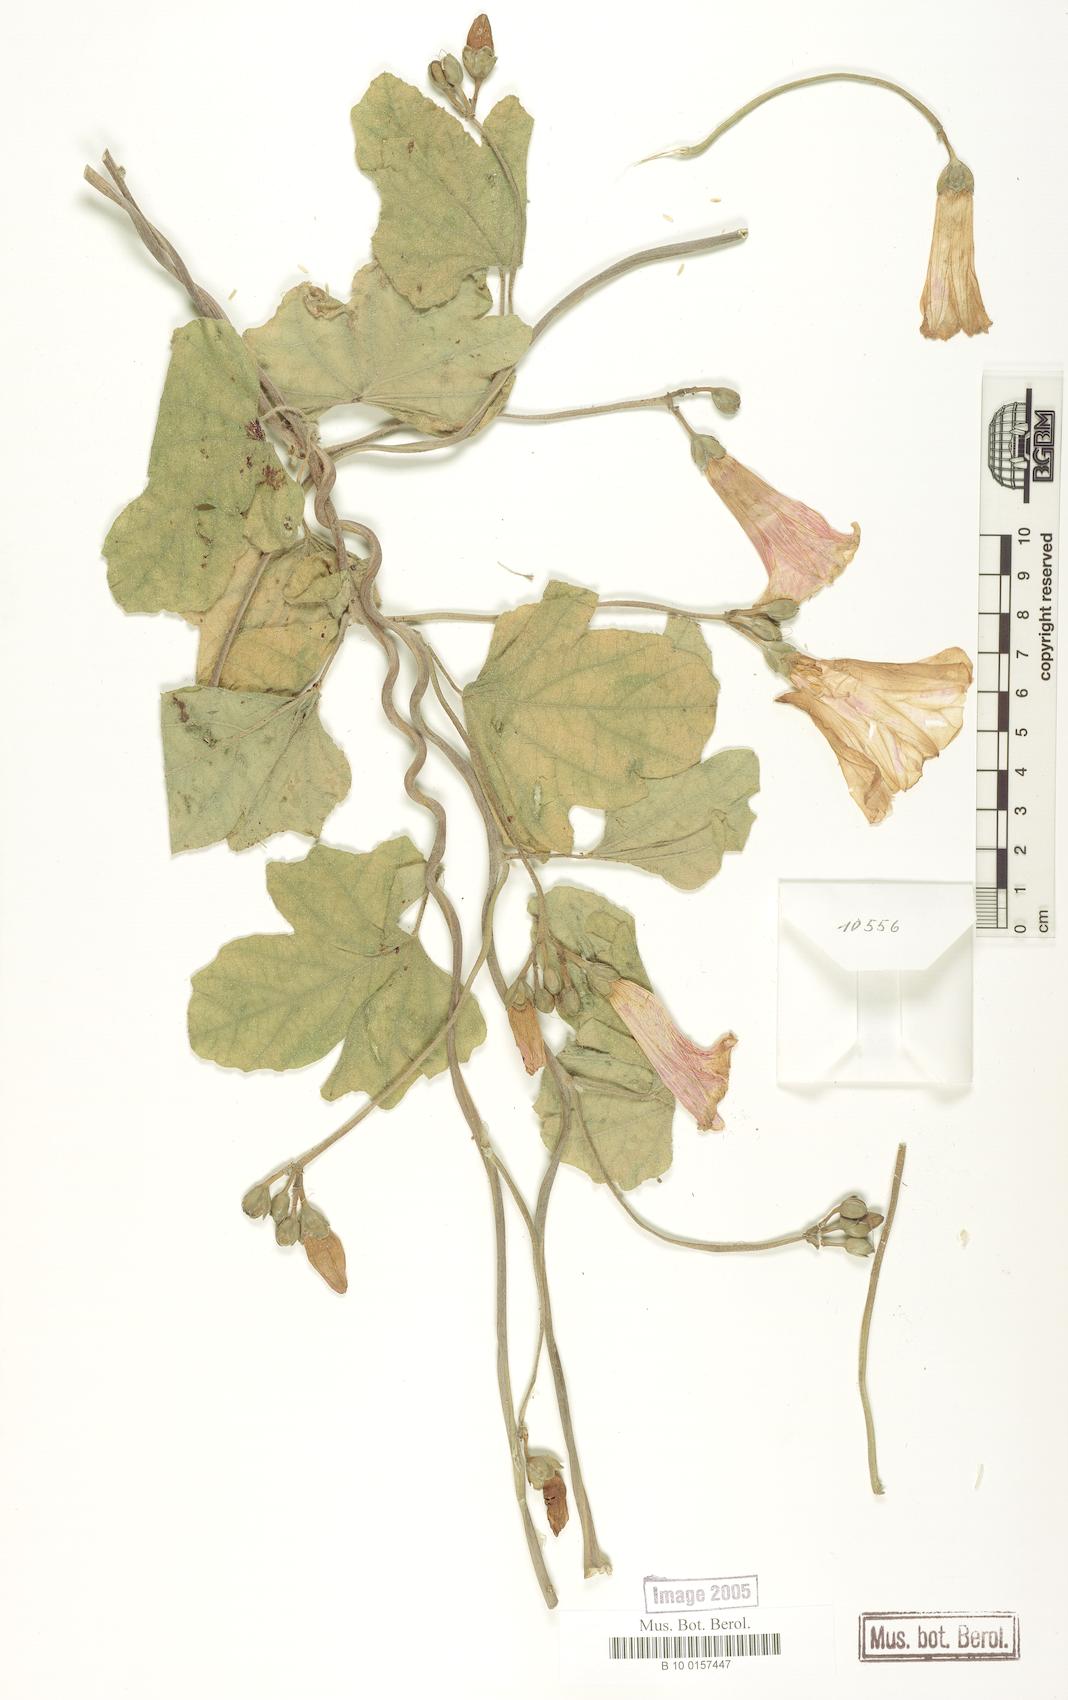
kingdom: Plantae
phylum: Tracheophyta
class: Magnoliopsida
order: Solanales
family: Convolvulaceae
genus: Ipomoea
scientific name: Ipomoea bonariensis
